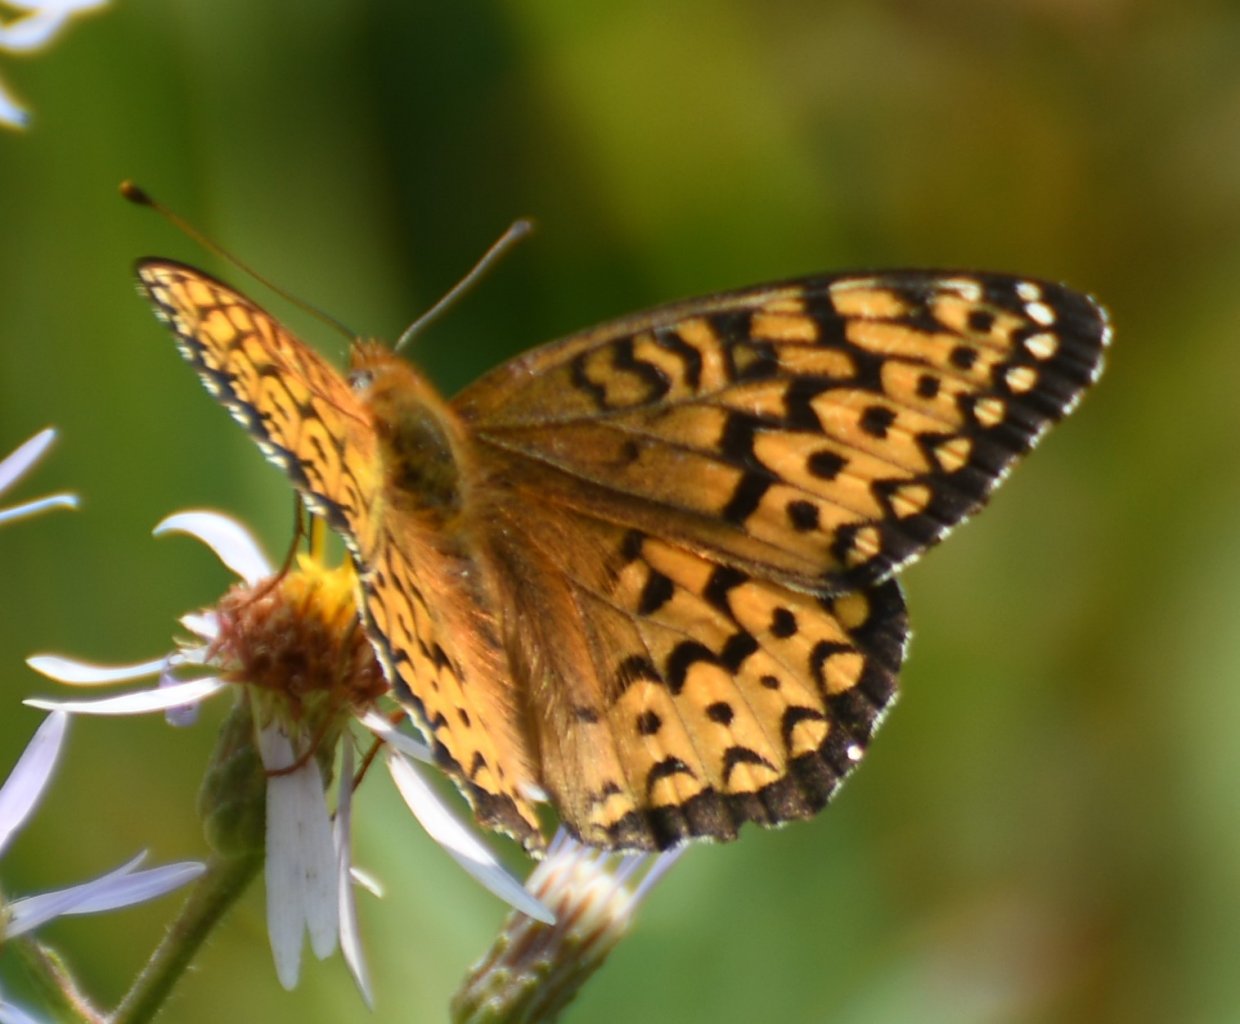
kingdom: Animalia
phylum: Arthropoda
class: Insecta
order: Lepidoptera
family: Nymphalidae
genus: Speyeria
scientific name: Speyeria atlantis
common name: Atlantis Fritillary
